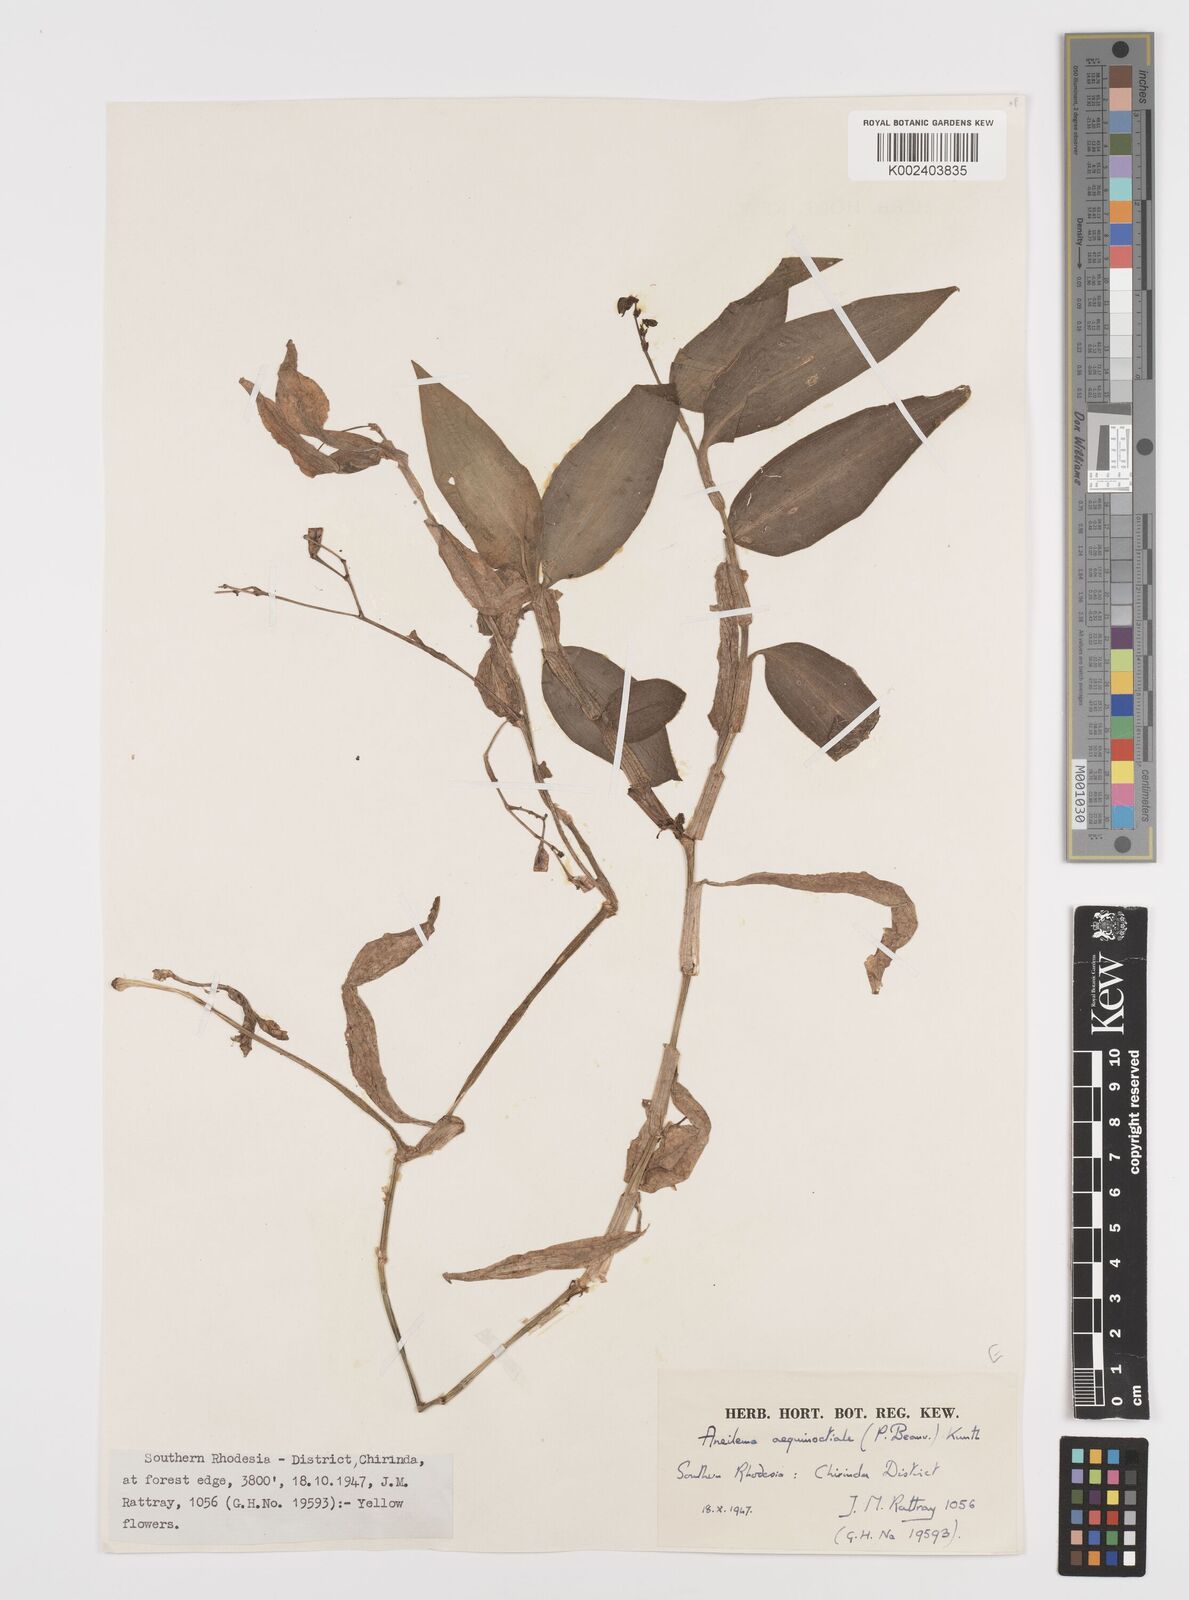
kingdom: Plantae
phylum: Tracheophyta
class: Liliopsida
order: Commelinales
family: Commelinaceae
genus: Aneilema
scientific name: Aneilema aequinoctiale
